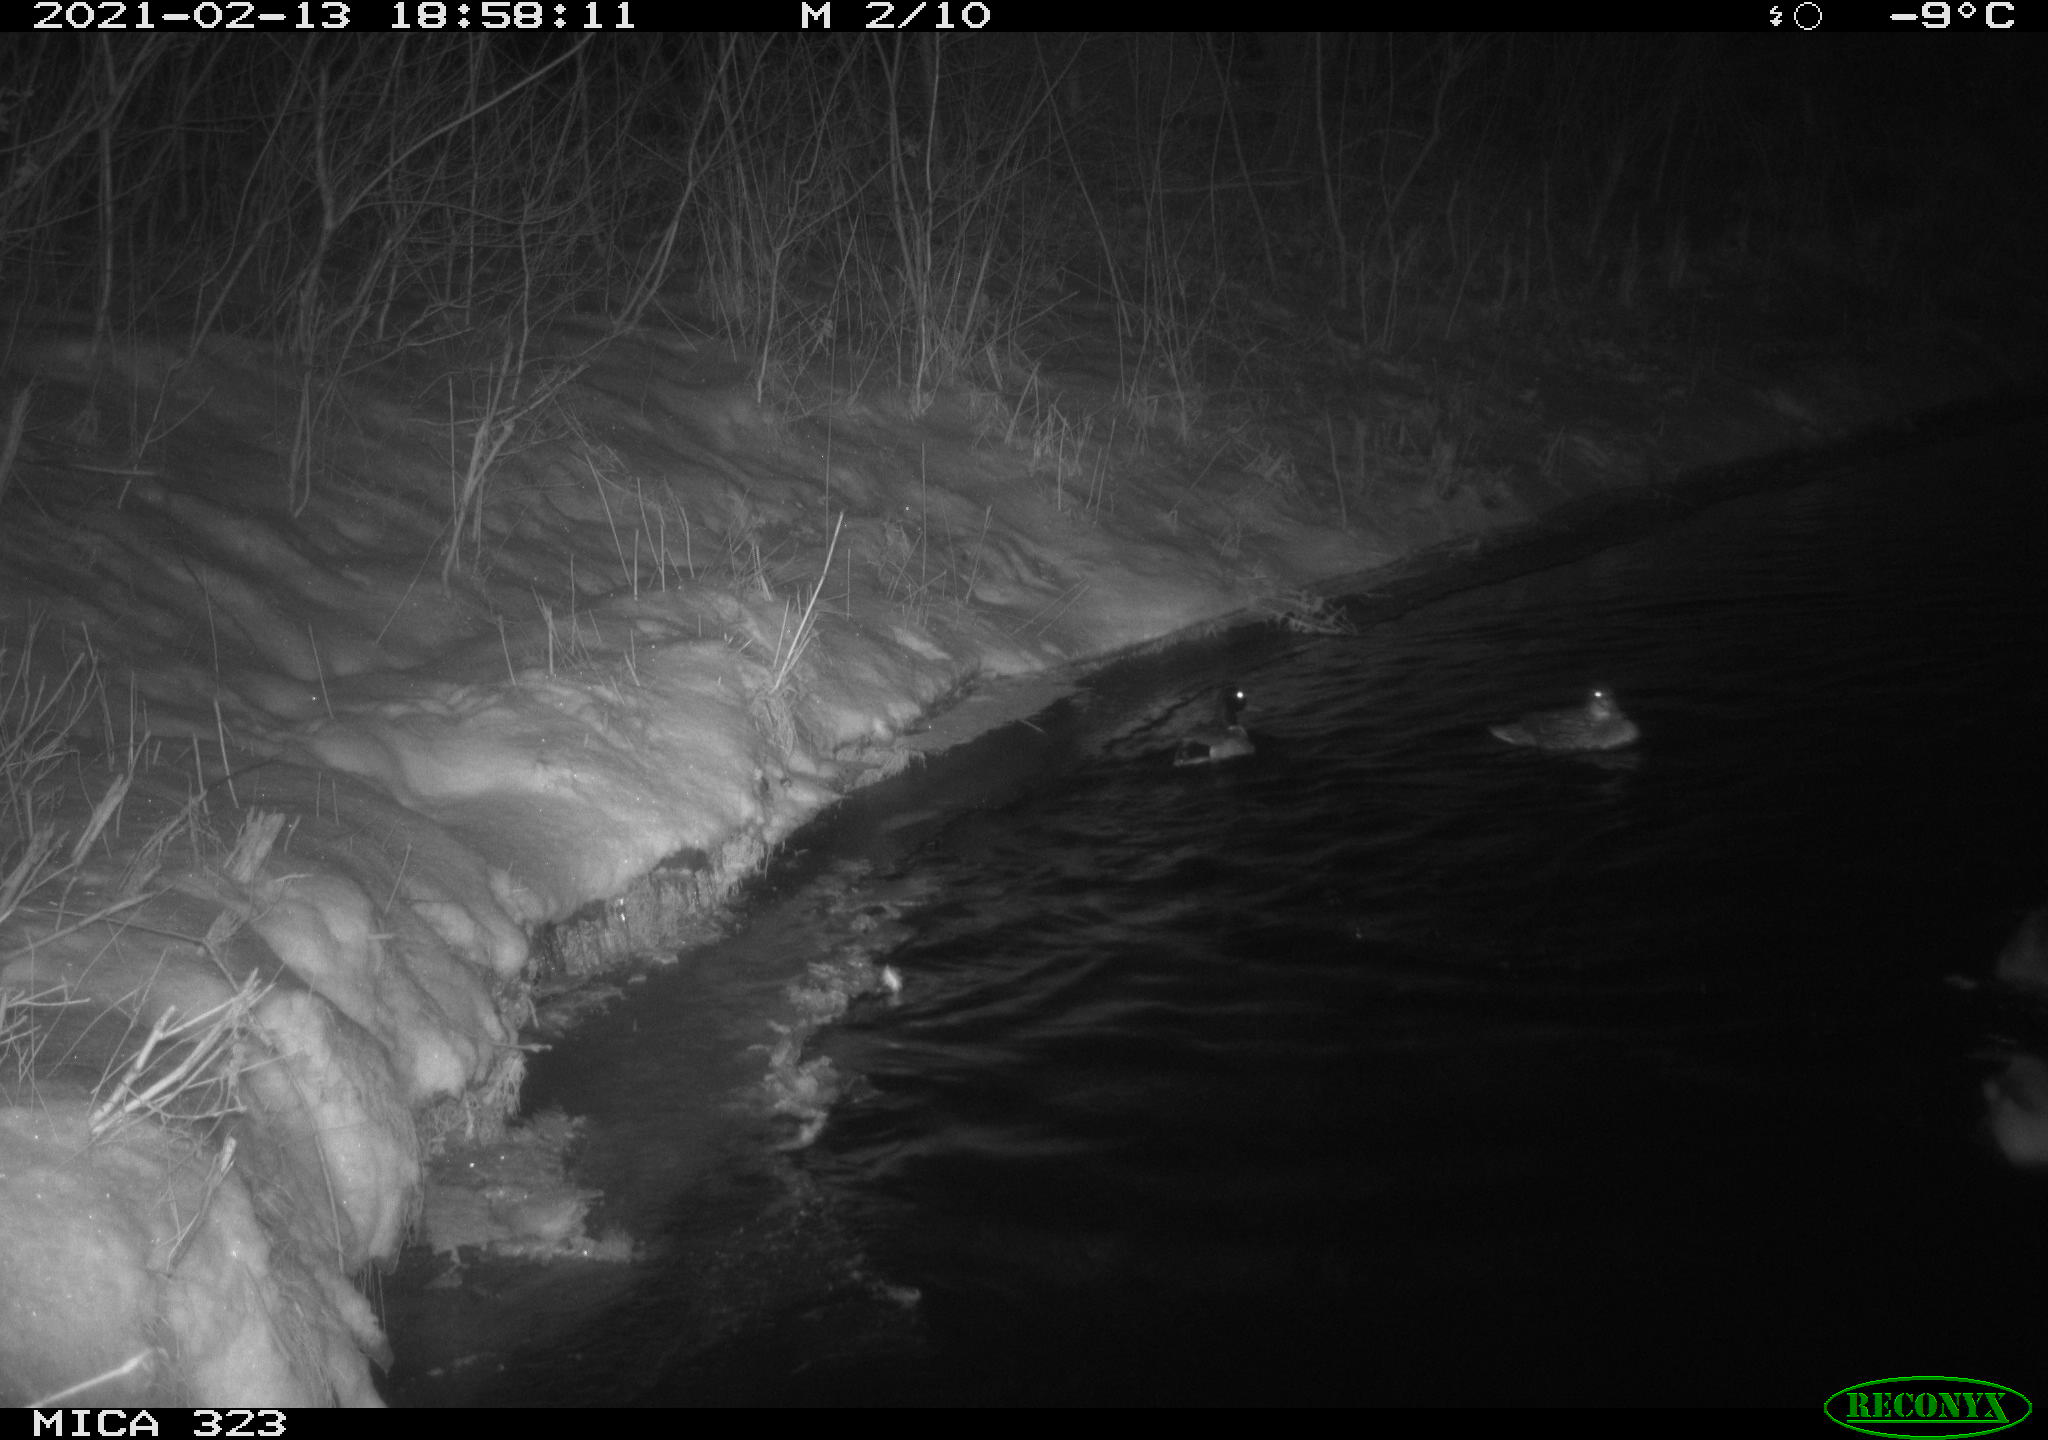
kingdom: Animalia
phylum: Chordata
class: Aves
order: Anseriformes
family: Anatidae
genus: Anas
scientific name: Anas platyrhynchos
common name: Mallard
